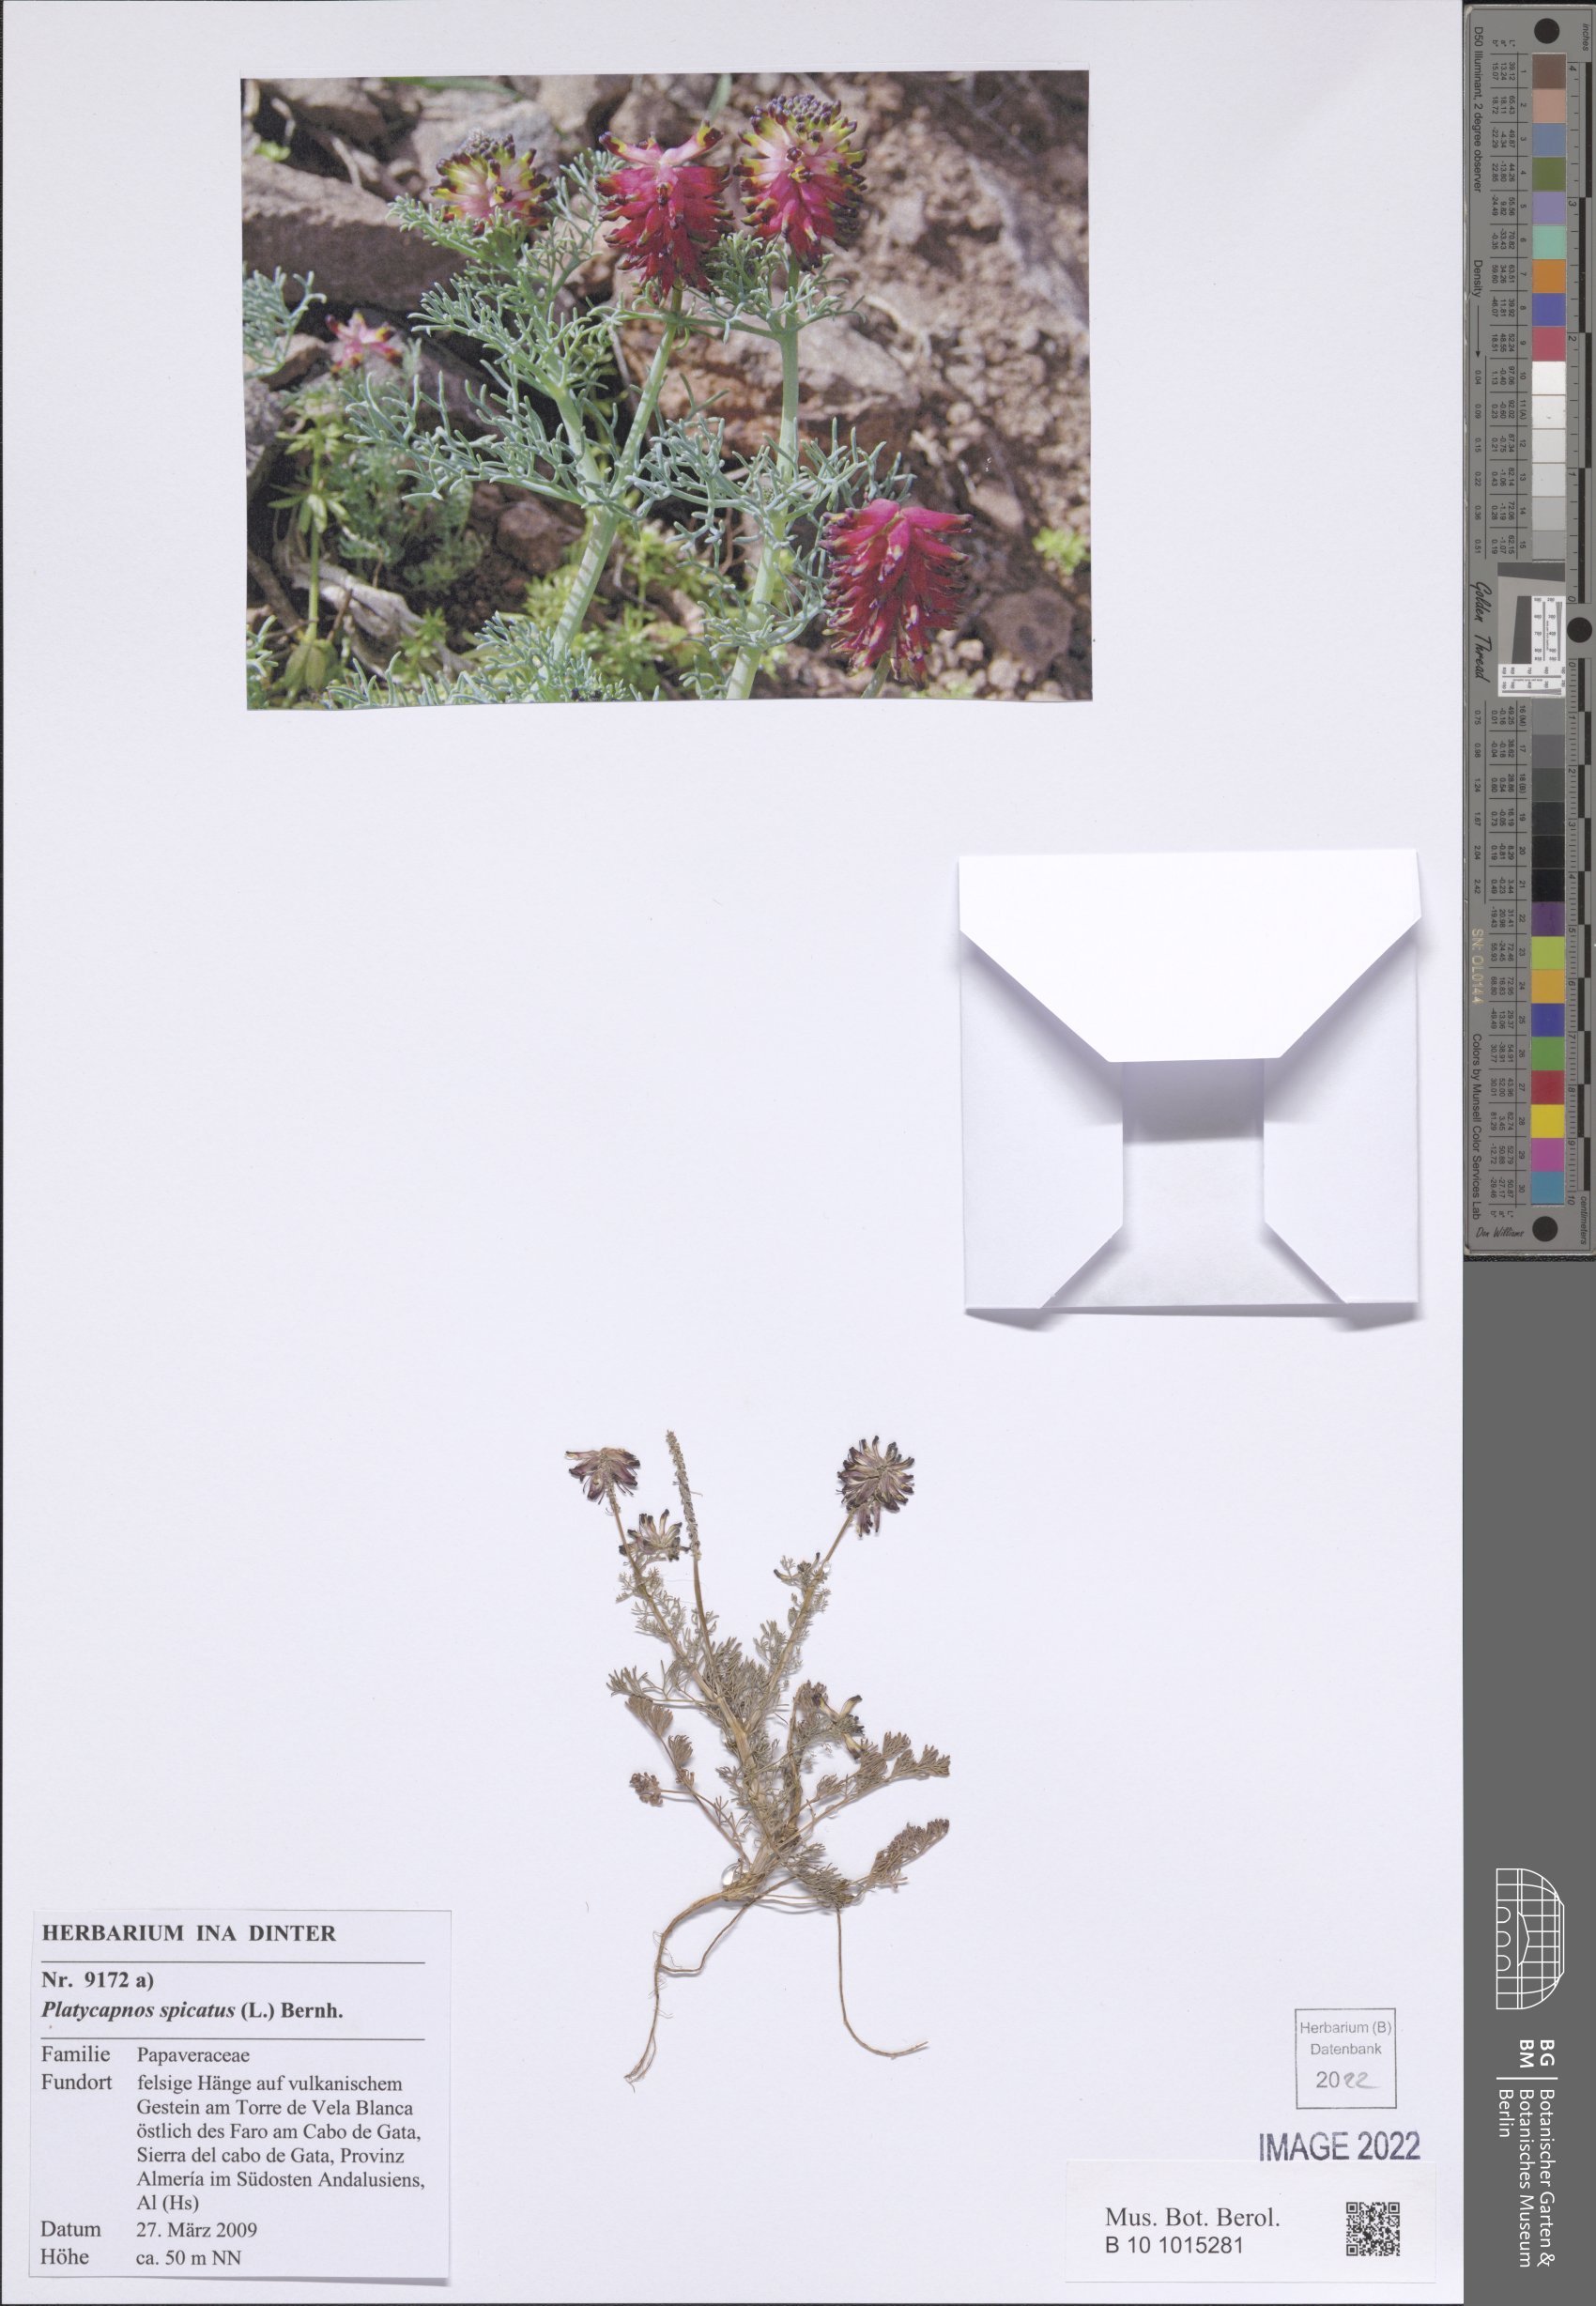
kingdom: Plantae
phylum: Tracheophyta
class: Magnoliopsida
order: Ranunculales
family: Papaveraceae
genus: Platycapnos
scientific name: Platycapnos spicata
